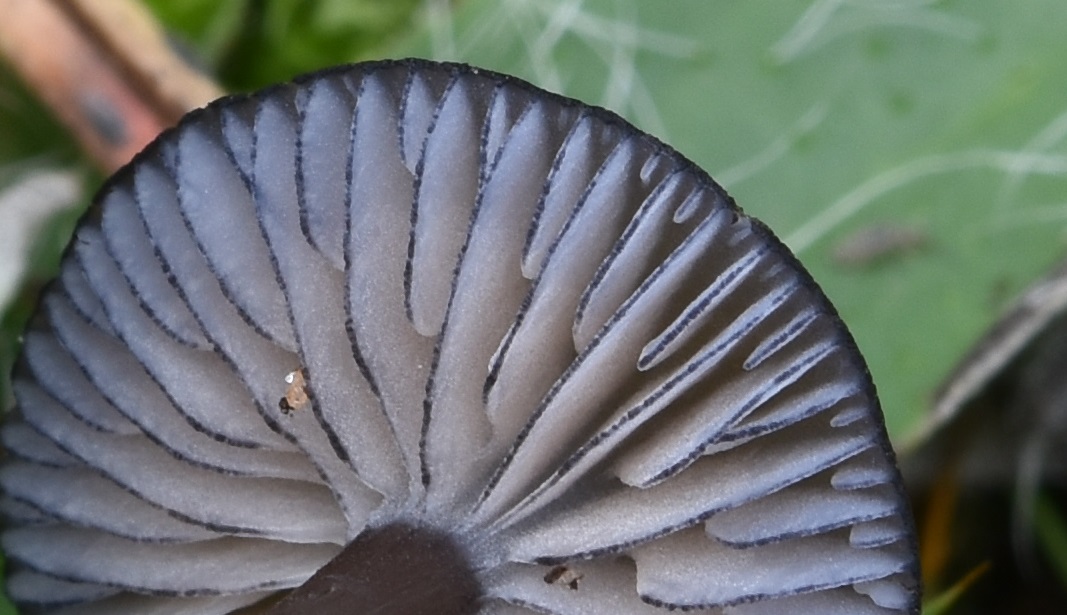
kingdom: Fungi
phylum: Basidiomycota
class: Agaricomycetes
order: Agaricales
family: Entolomataceae
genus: Entoloma
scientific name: Entoloma
